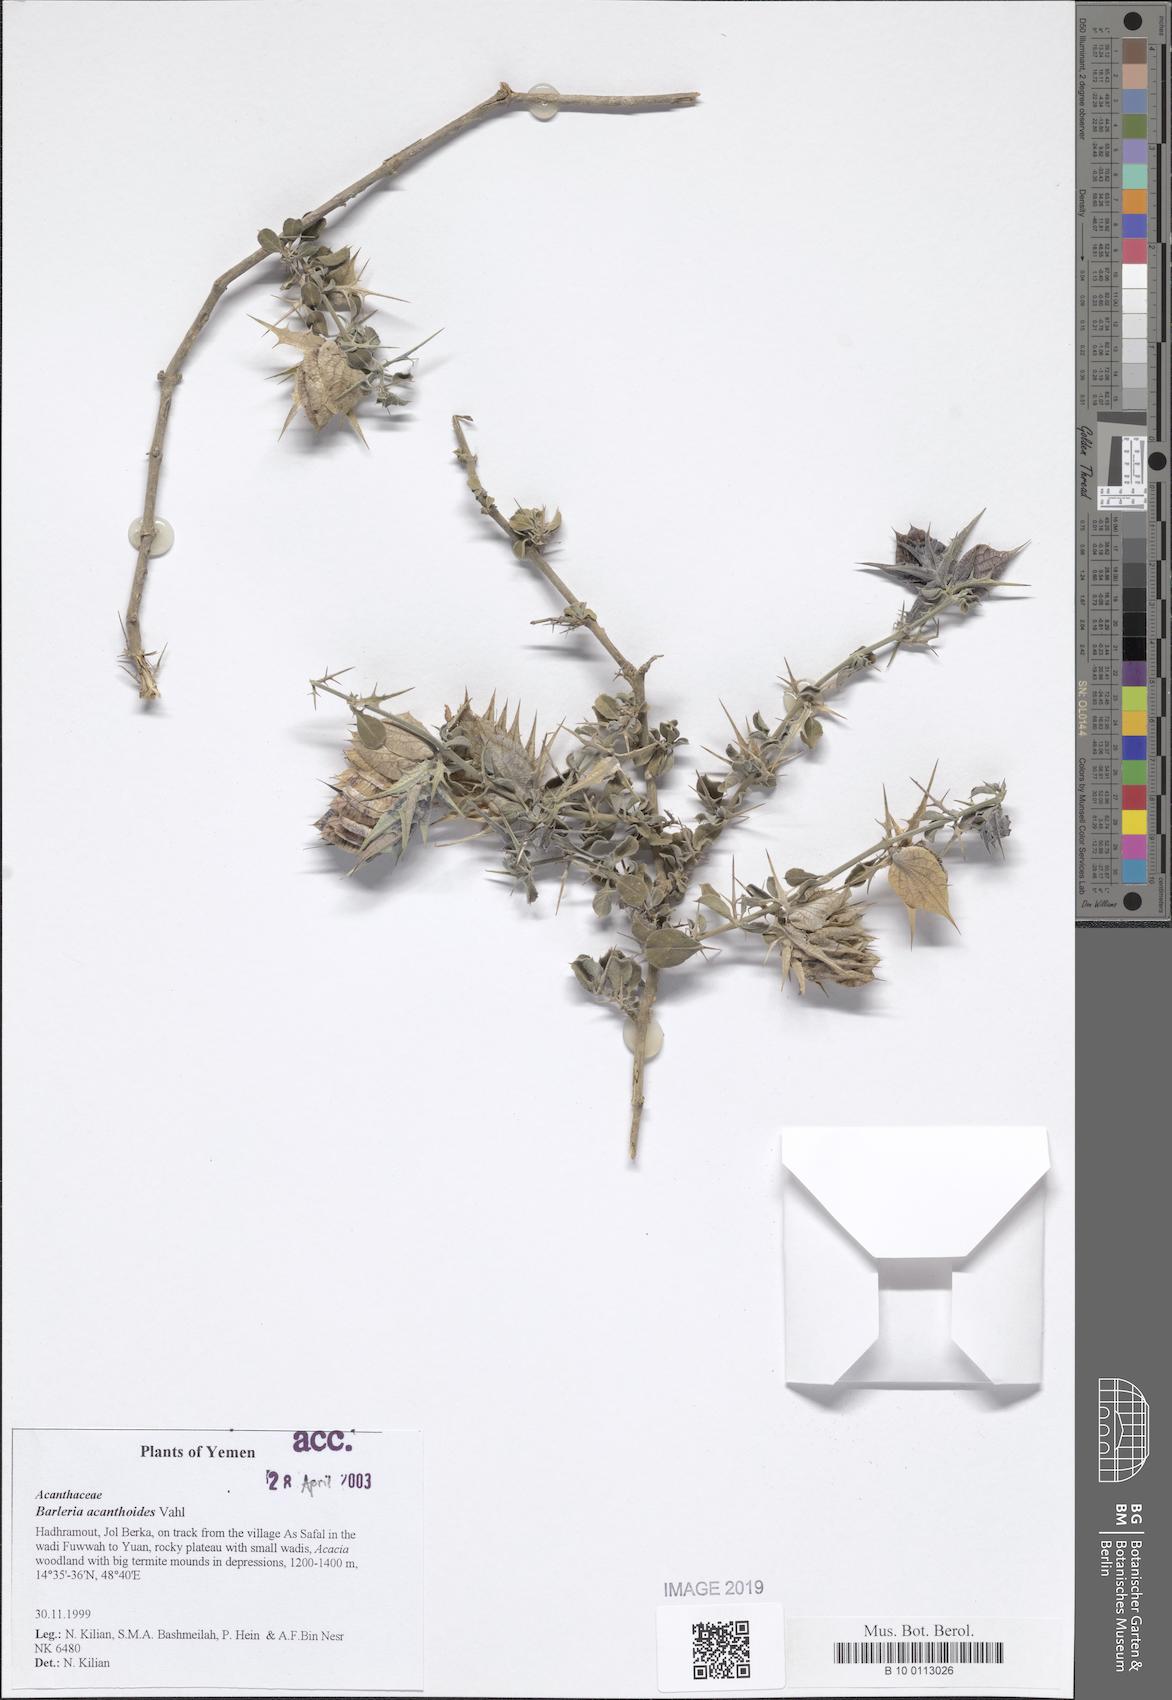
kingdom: Plantae
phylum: Tracheophyta
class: Magnoliopsida
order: Lamiales
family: Acanthaceae
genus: Barleria
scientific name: Barleria acanthoides
